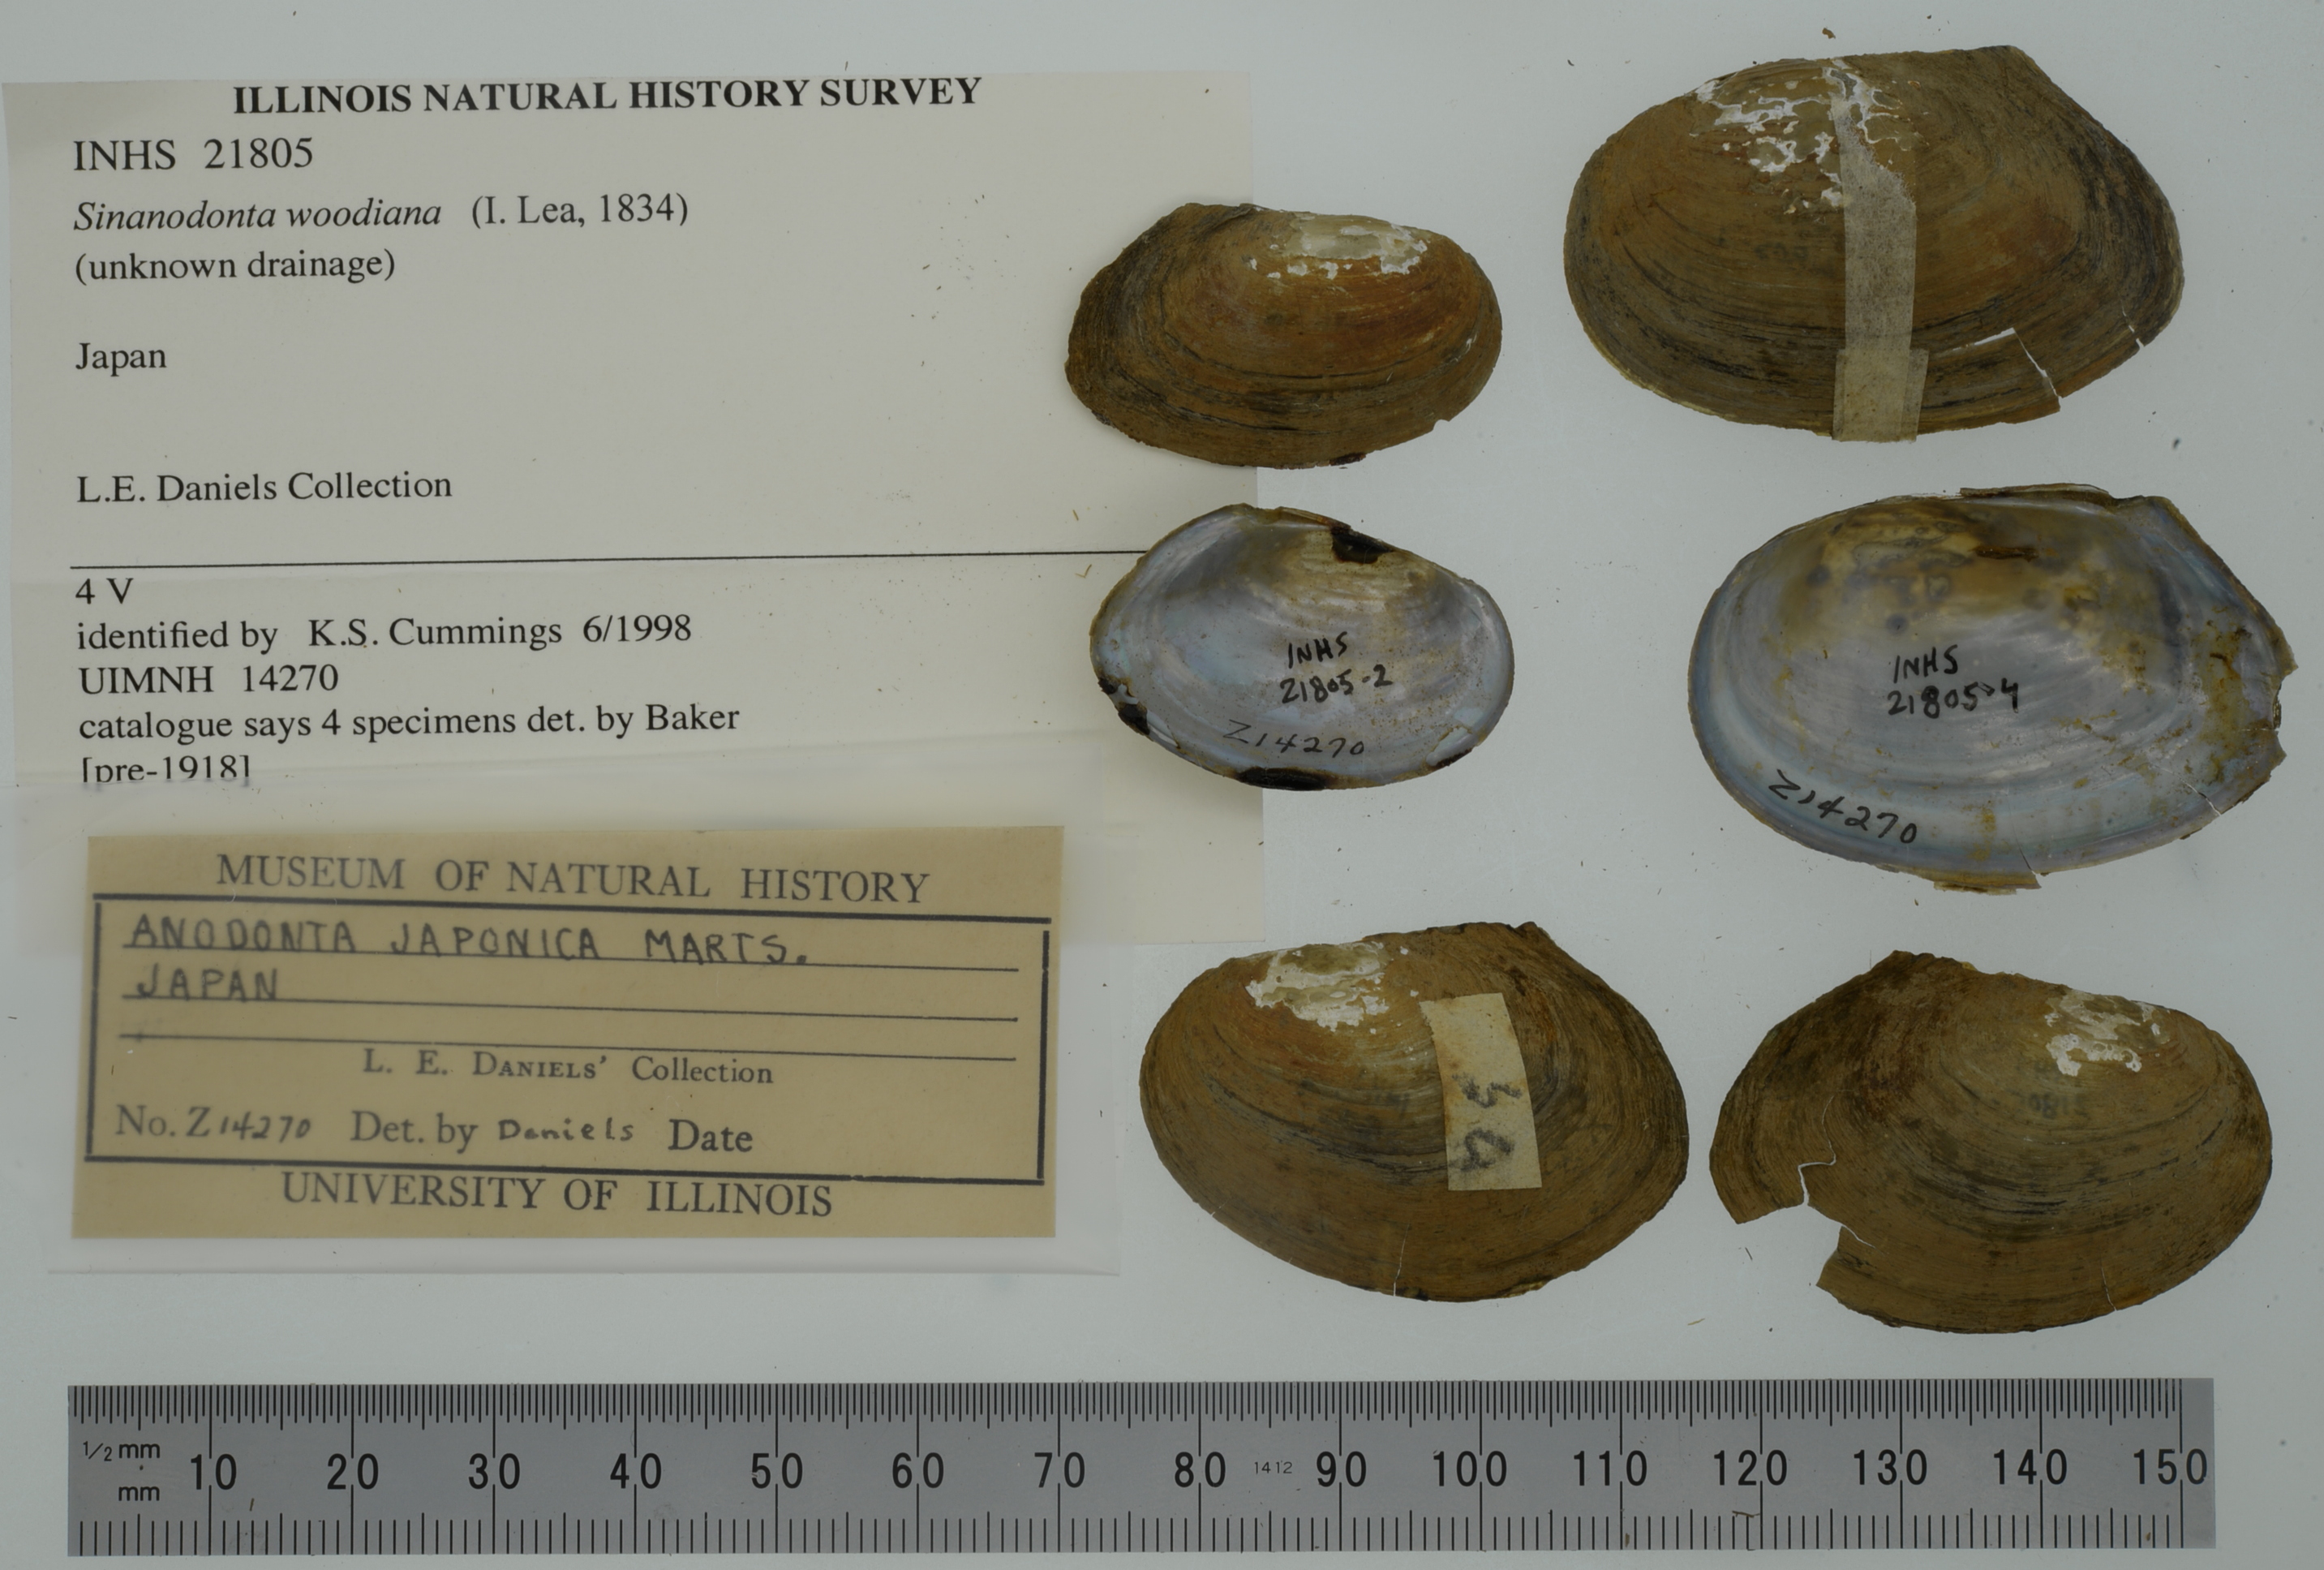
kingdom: Animalia
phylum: Mollusca
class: Bivalvia
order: Unionida
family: Unionidae
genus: Sinanodonta
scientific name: Sinanodonta woodiana
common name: Chinese pond mussel
